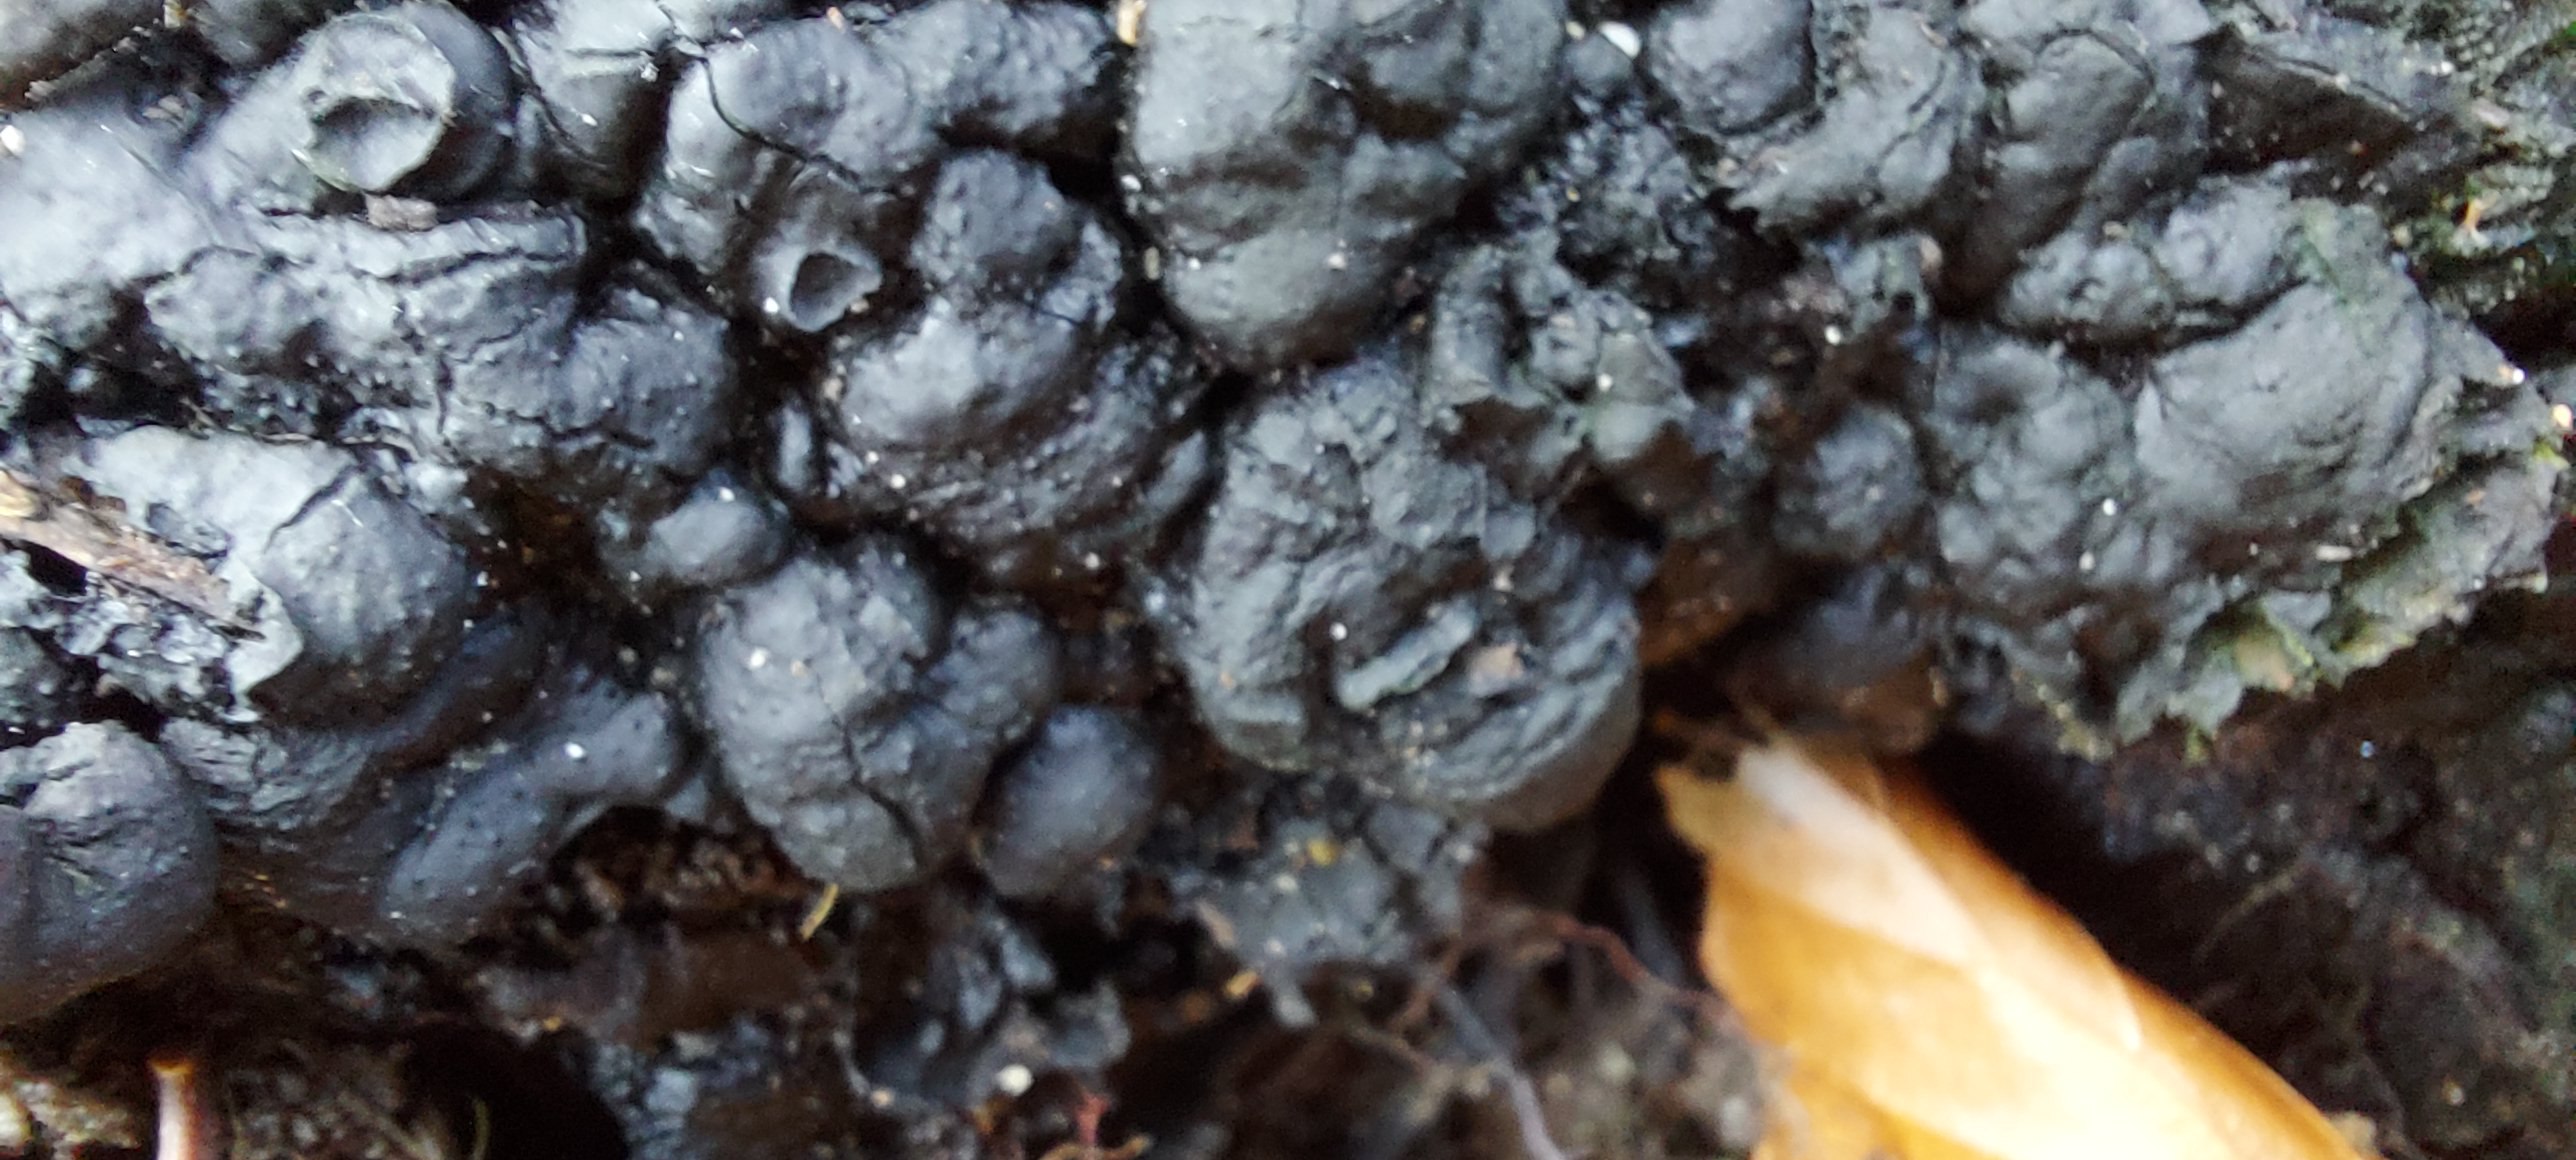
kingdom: Fungi
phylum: Ascomycota
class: Sordariomycetes
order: Xylariales
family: Xylariaceae
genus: Kretzschmaria
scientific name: Kretzschmaria deusta
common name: stor kulsvamp
